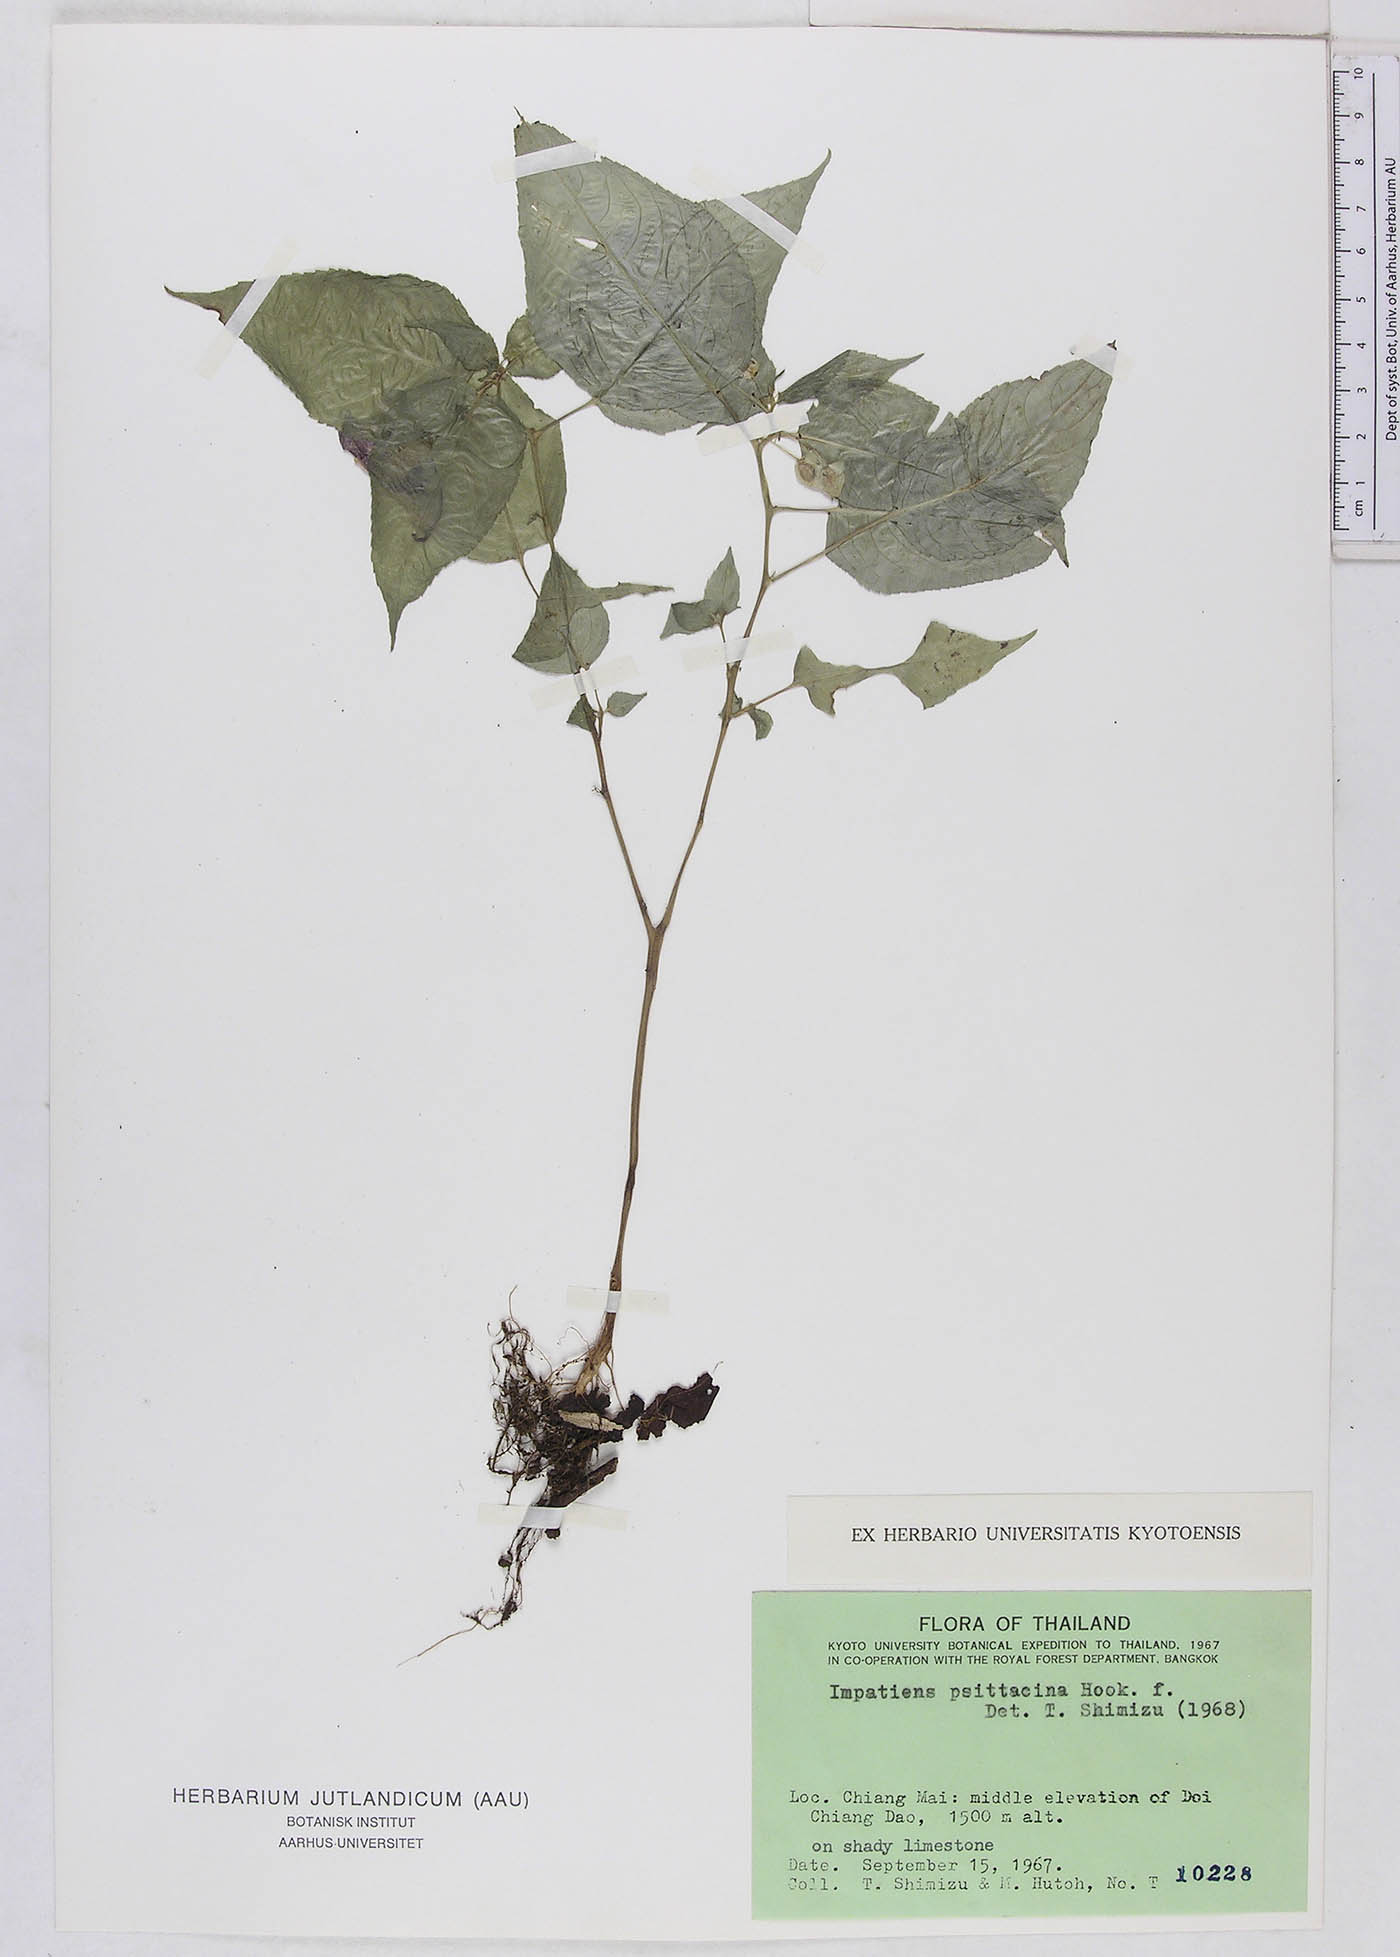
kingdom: Plantae
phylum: Tracheophyta
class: Magnoliopsida
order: Ericales
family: Balsaminaceae
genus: Impatiens
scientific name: Impatiens psittacina
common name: Parrot-flower
